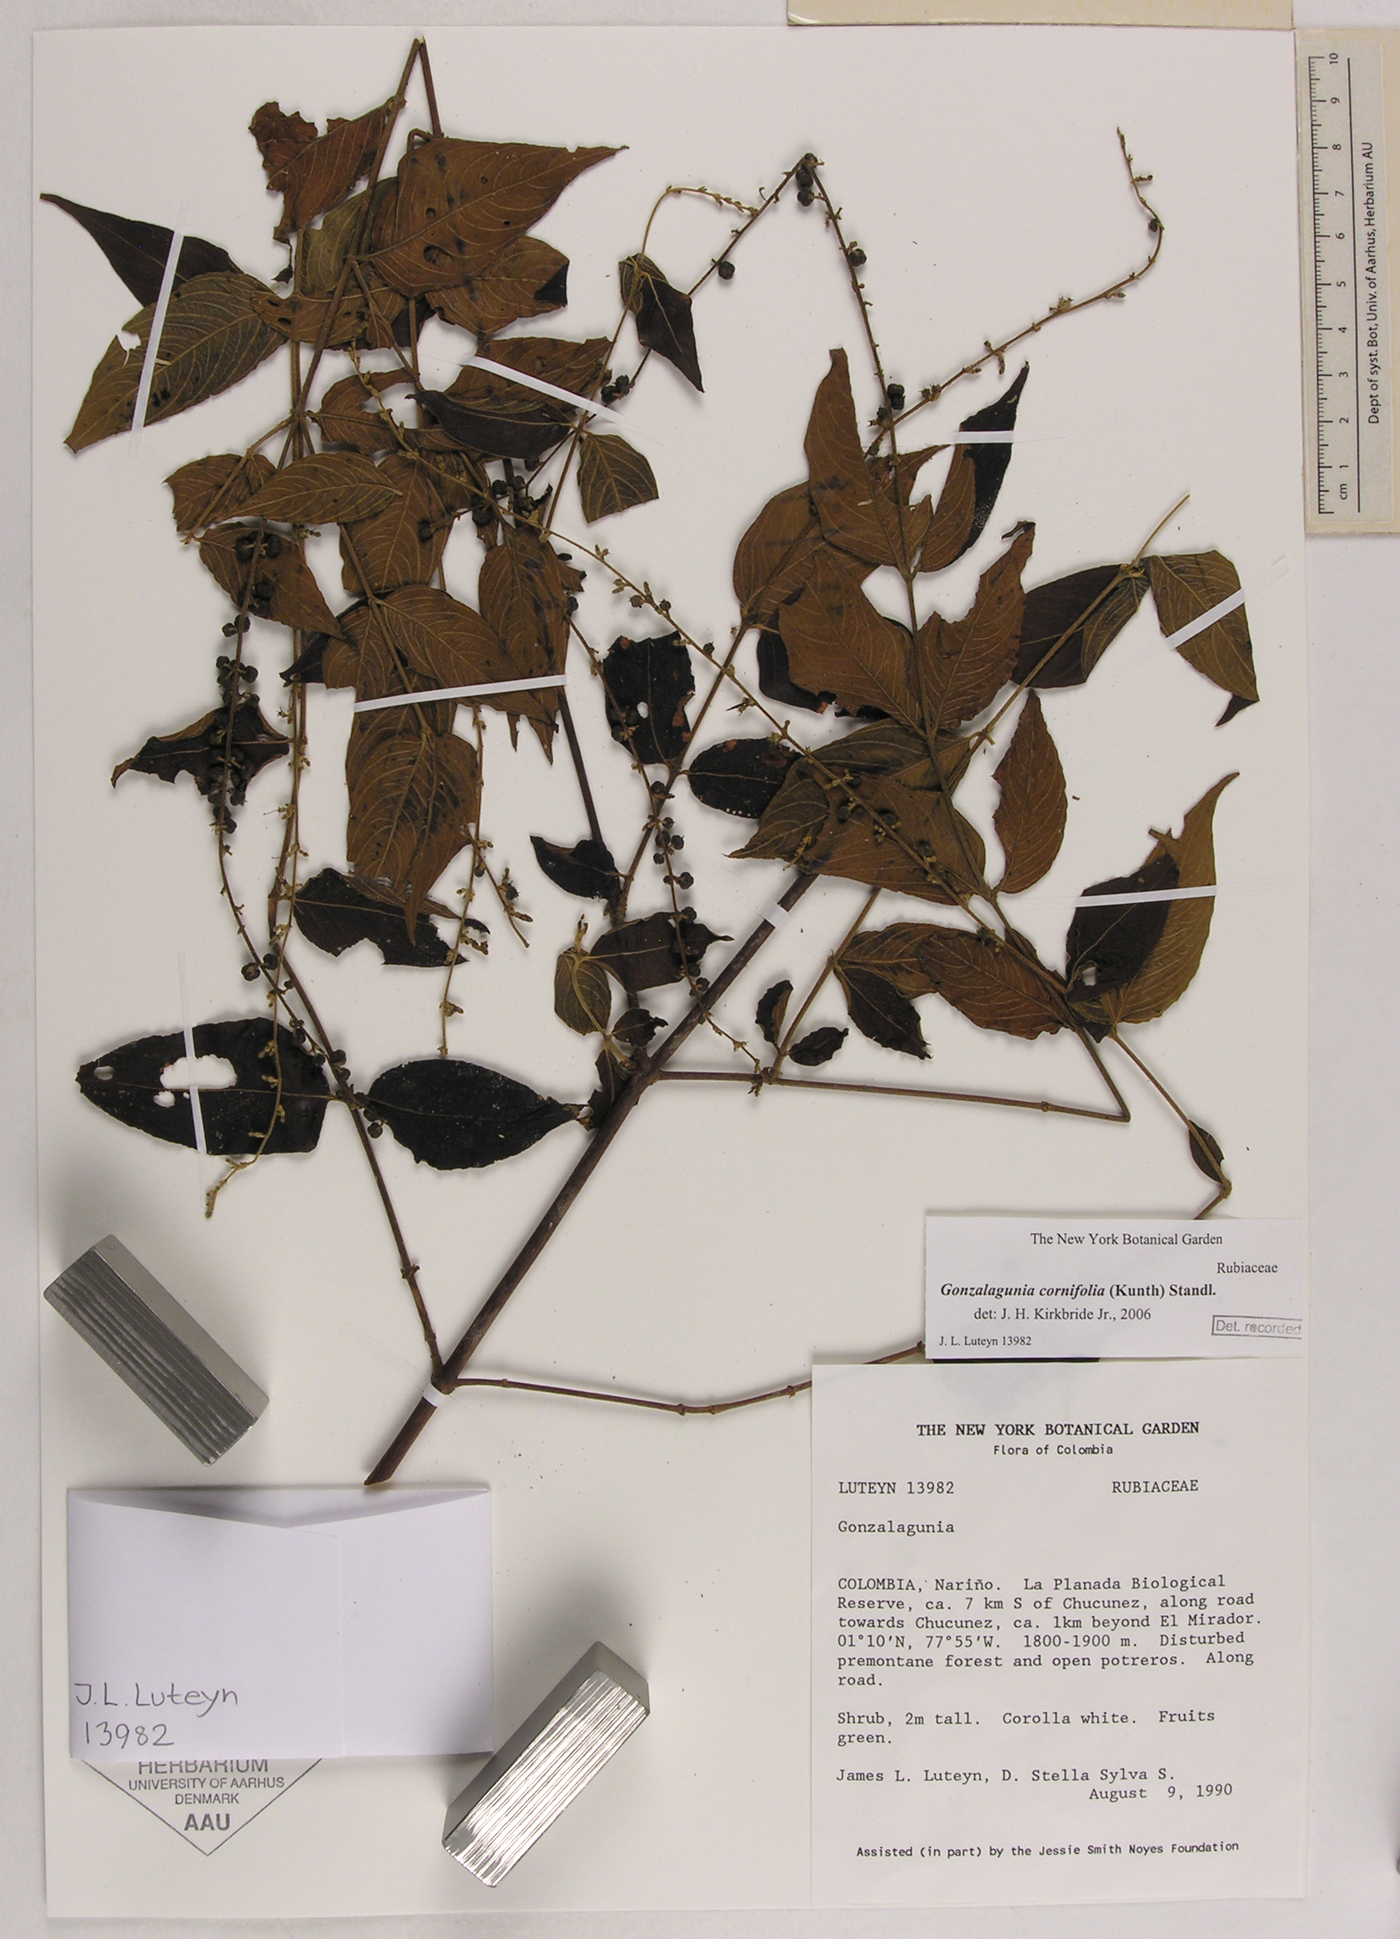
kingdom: Plantae
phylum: Tracheophyta
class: Magnoliopsida
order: Gentianales
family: Rubiaceae
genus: Gonzalagunia
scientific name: Gonzalagunia cornifolia
